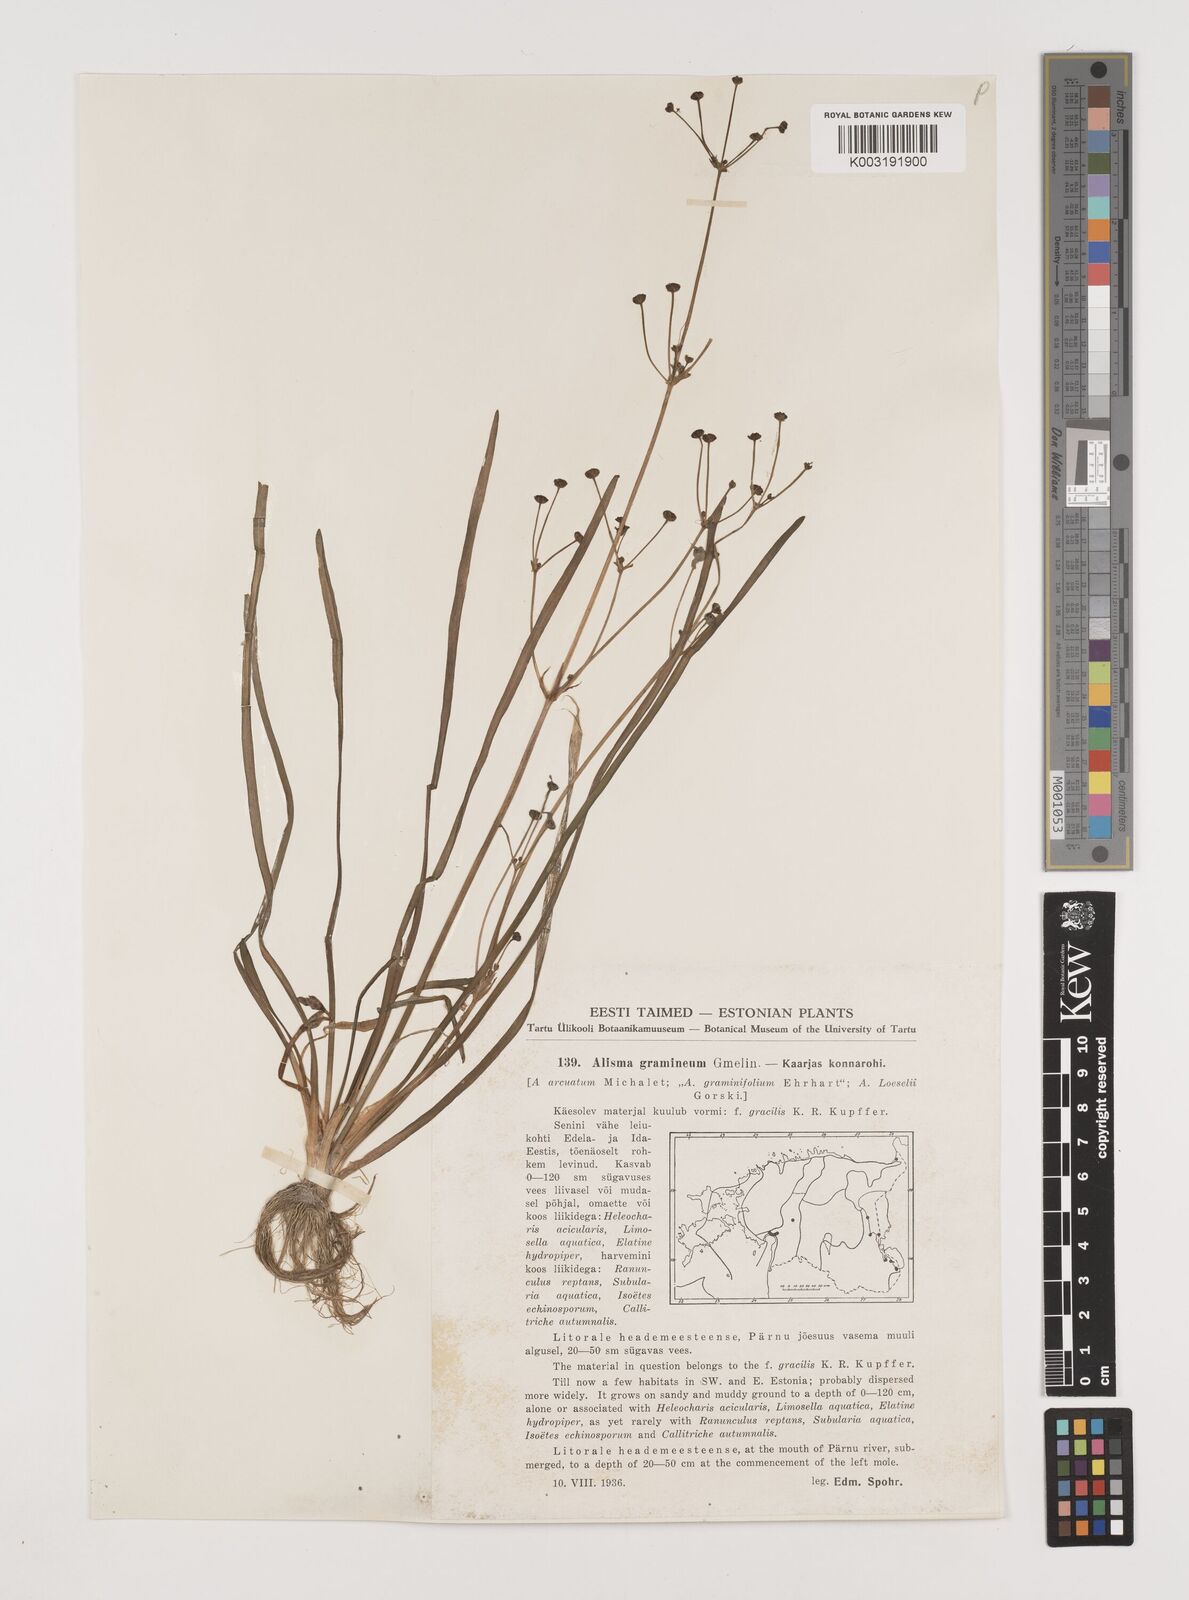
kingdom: Plantae
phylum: Tracheophyta
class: Liliopsida
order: Alismatales
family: Alismataceae
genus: Alisma
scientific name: Alisma gramineum
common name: Ribbon-leaved water-plantain
